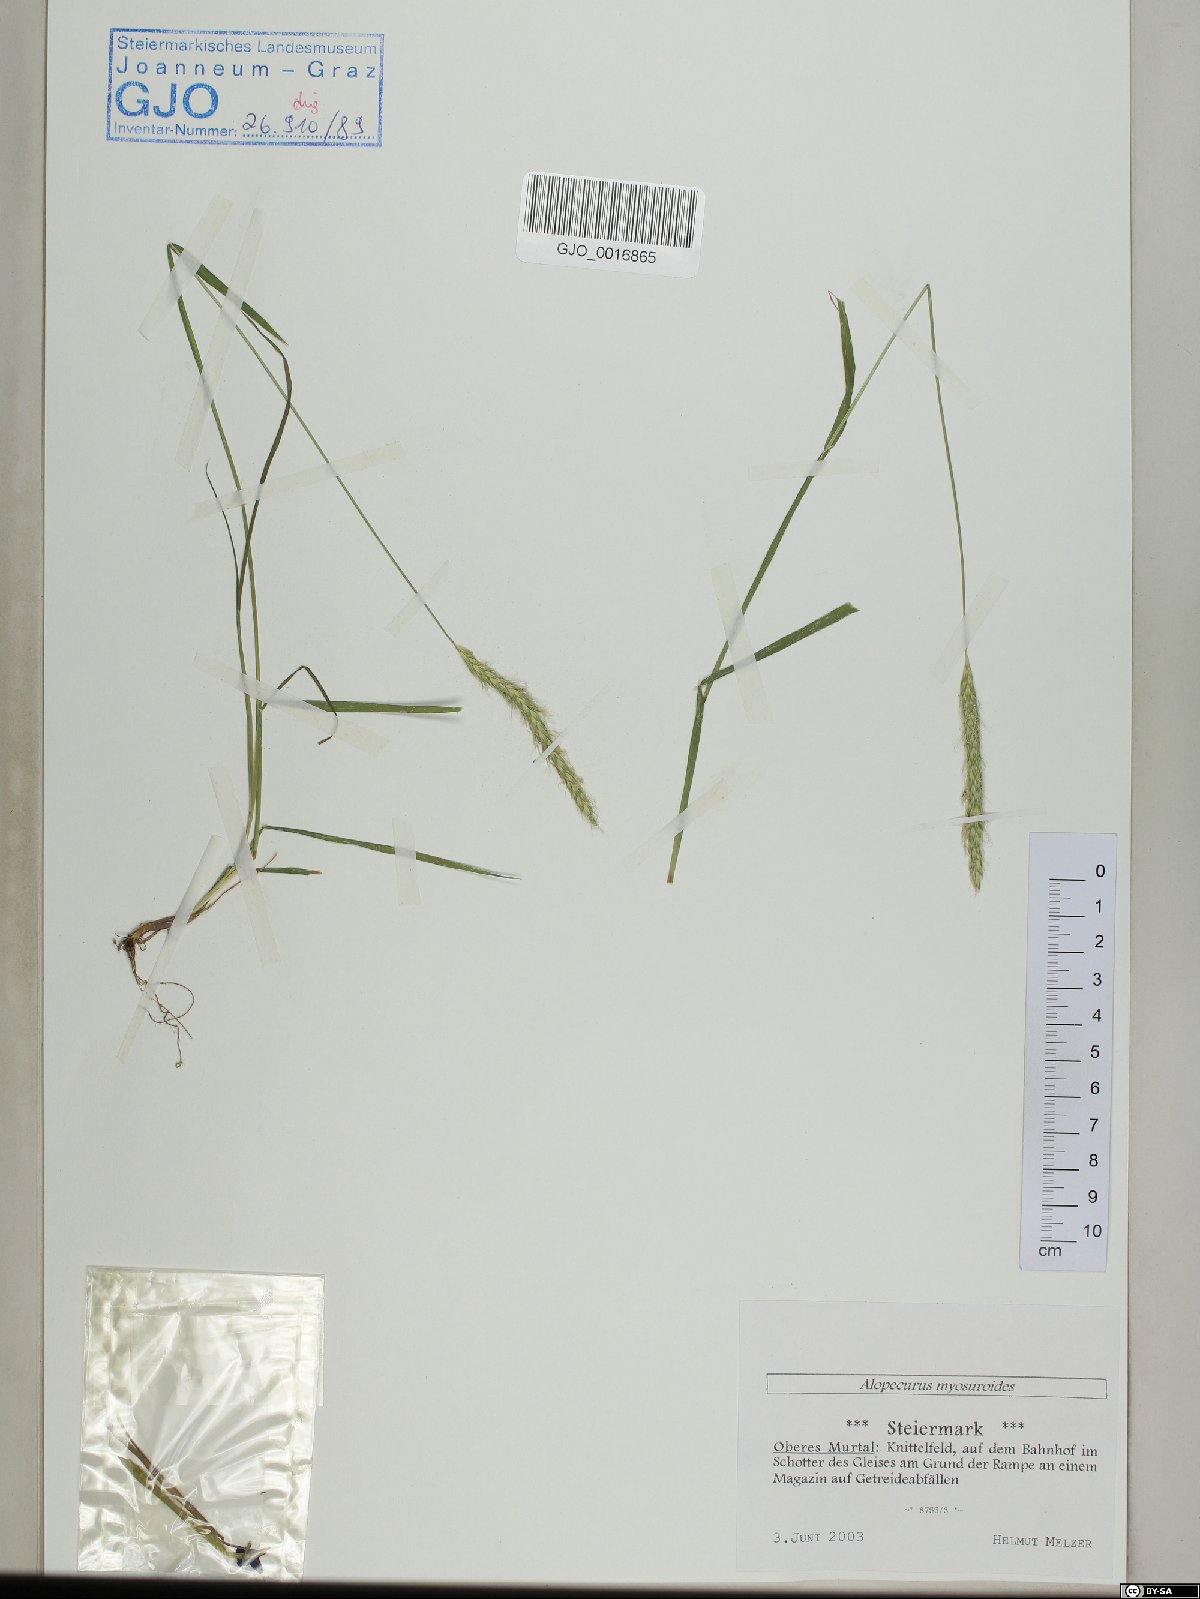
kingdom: Plantae
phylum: Tracheophyta
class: Liliopsida
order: Poales
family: Poaceae
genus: Alopecurus
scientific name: Alopecurus myosuroides
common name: Black-grass
